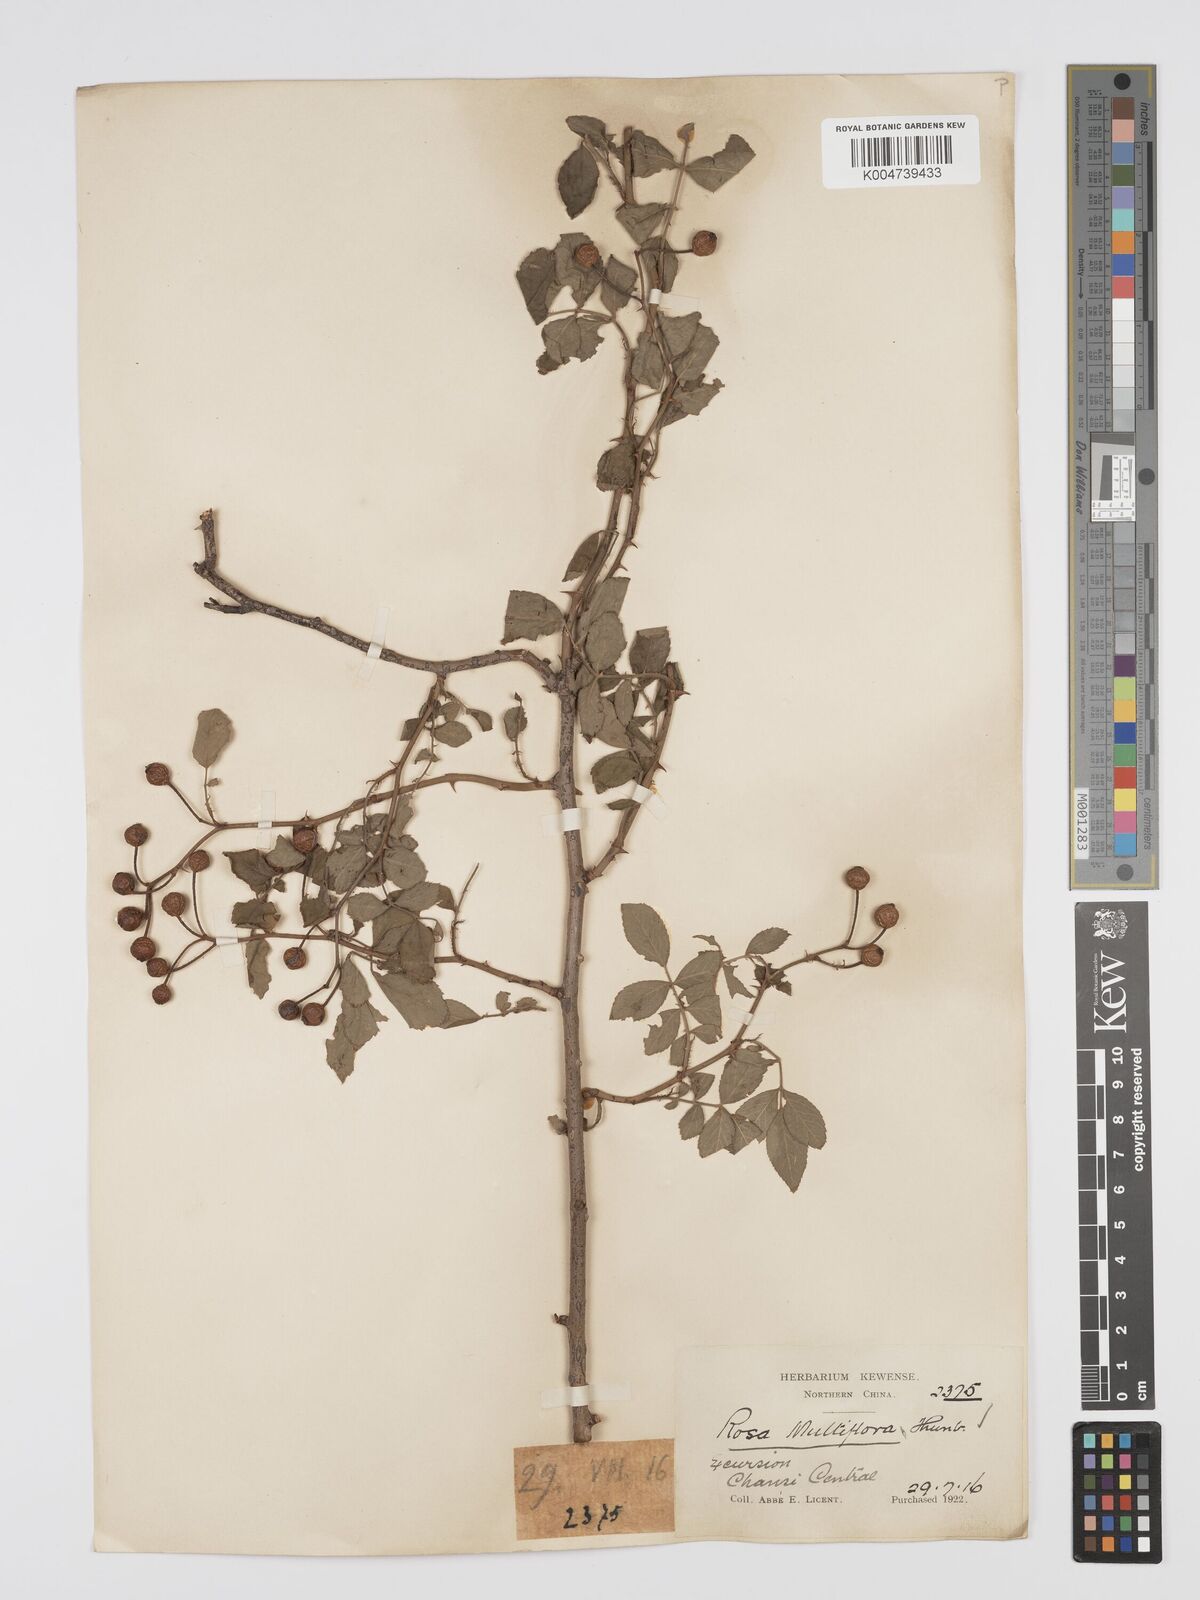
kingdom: Plantae
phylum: Tracheophyta
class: Magnoliopsida
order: Rosales
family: Rosaceae
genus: Rosa
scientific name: Rosa
